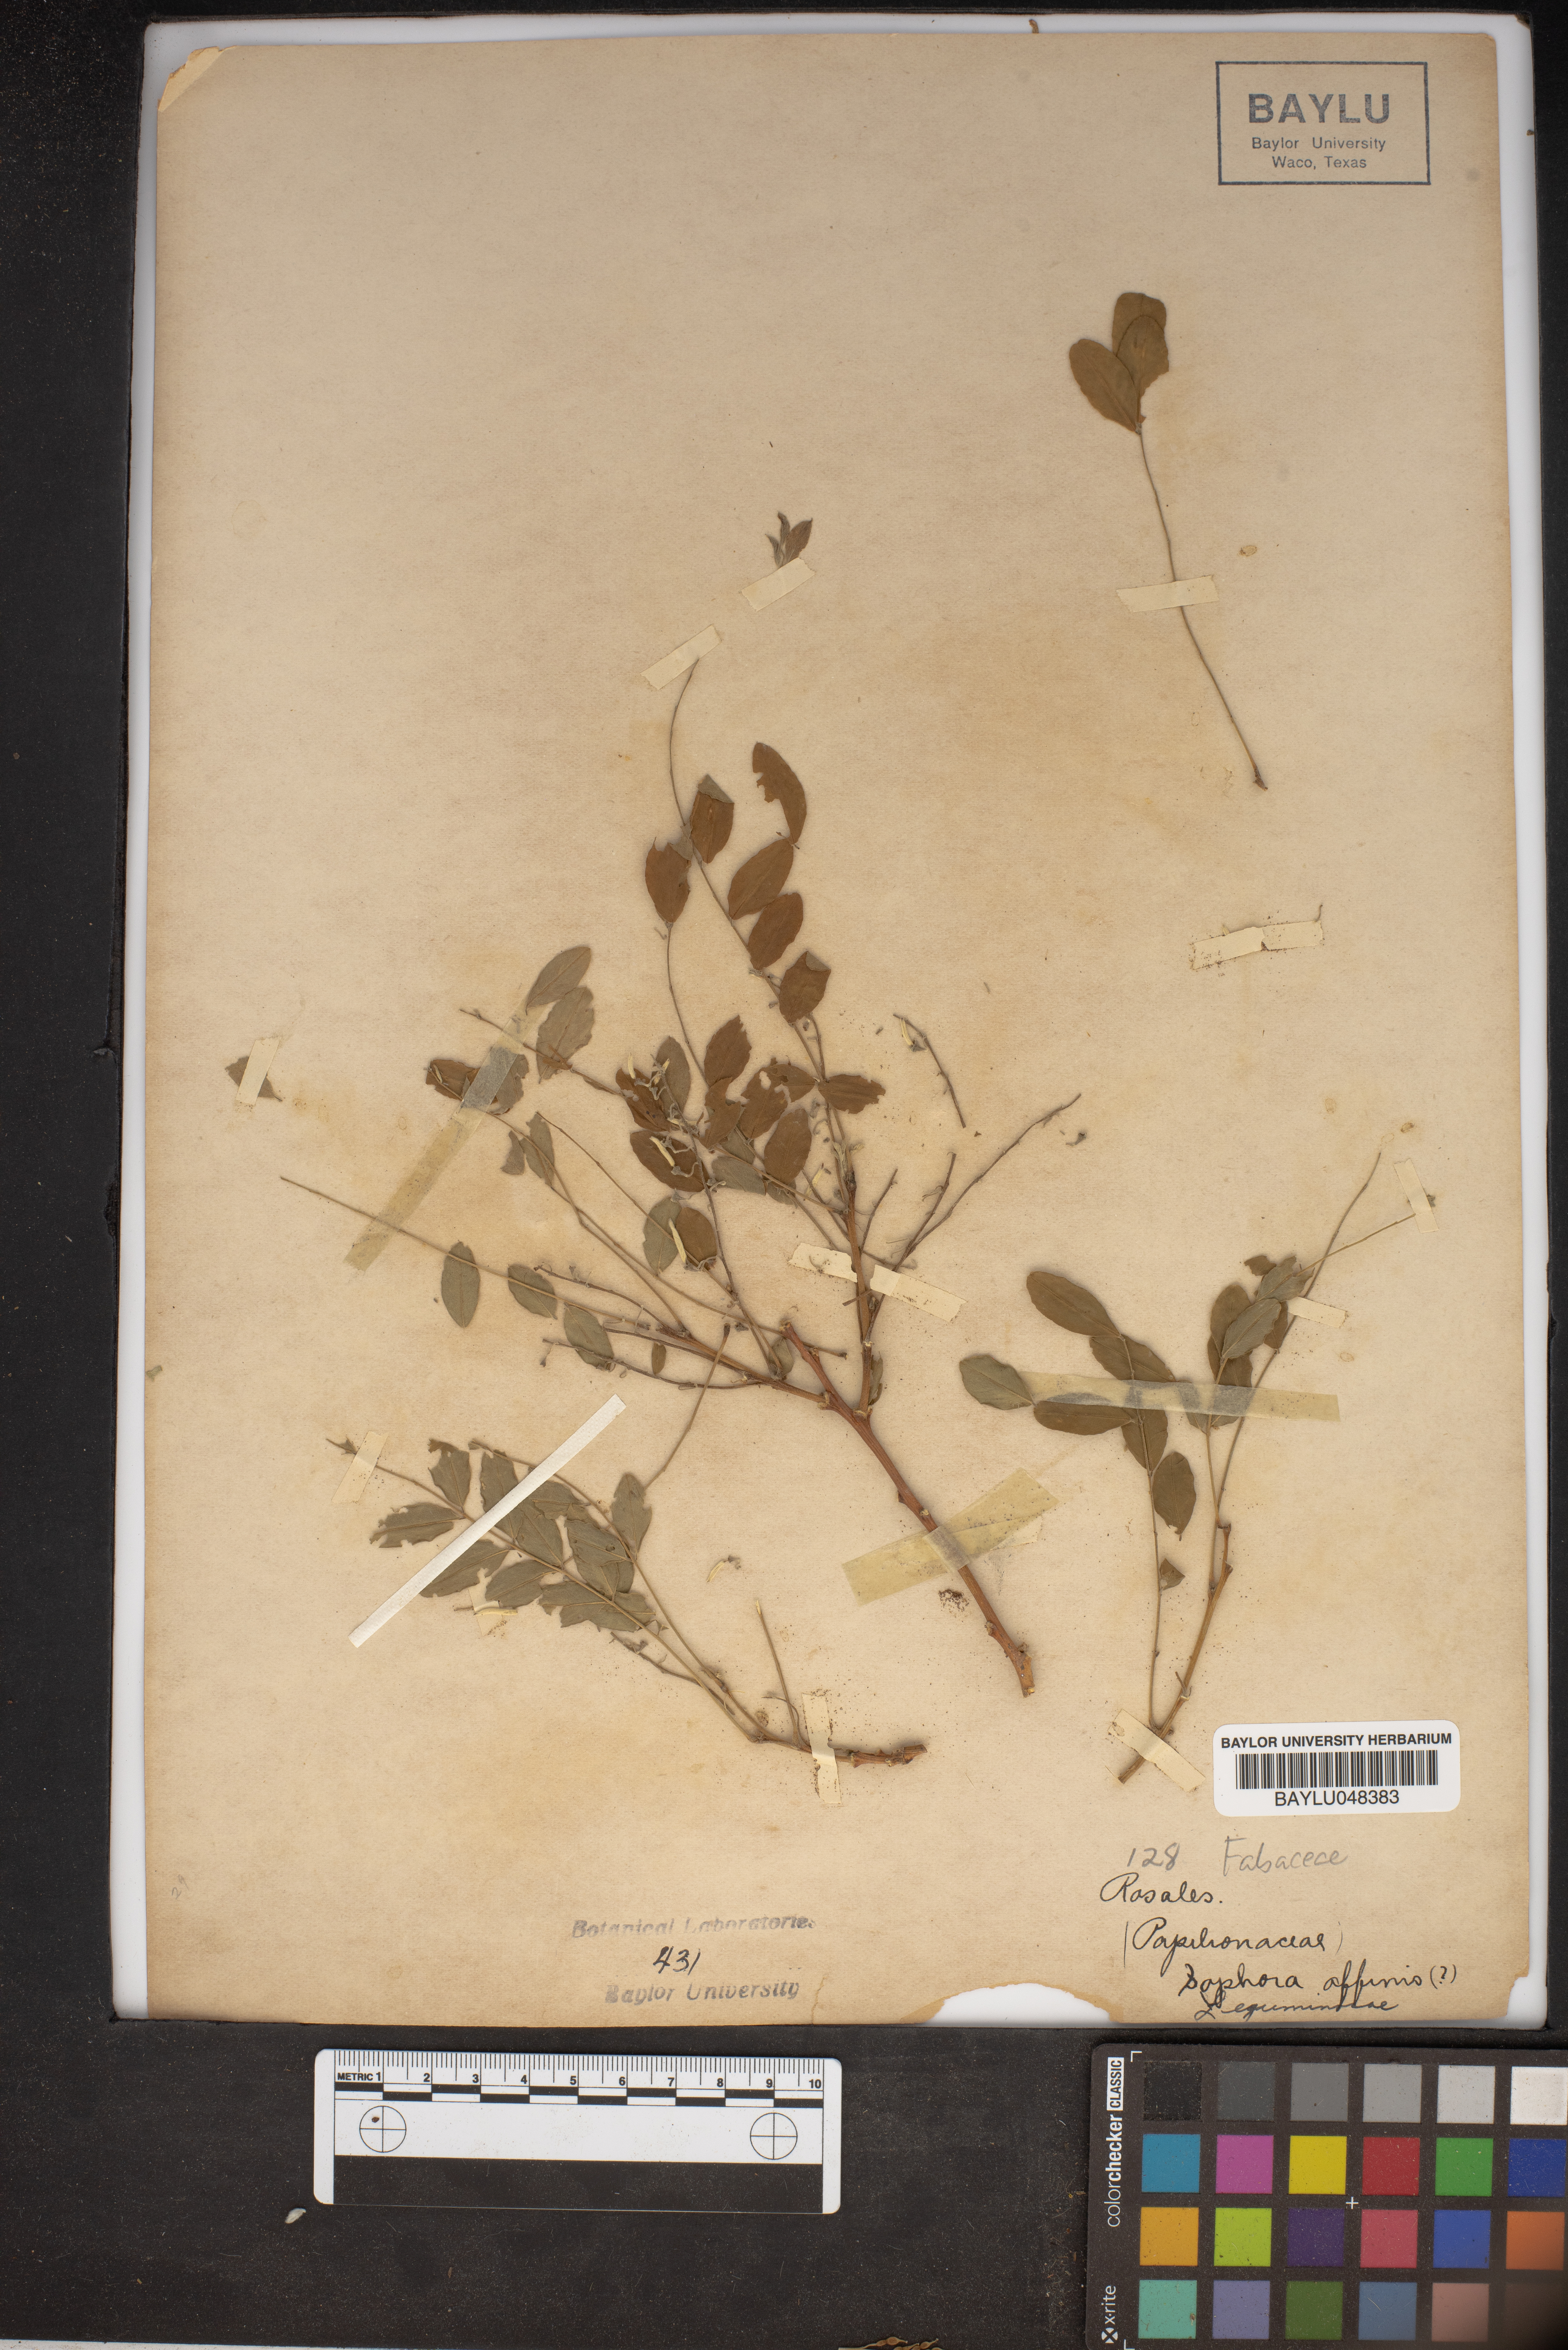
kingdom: Plantae
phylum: Tracheophyta
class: Magnoliopsida
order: Fabales
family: Fabaceae
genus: Styphnolobium
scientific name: Styphnolobium affine
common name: Texas sophora
